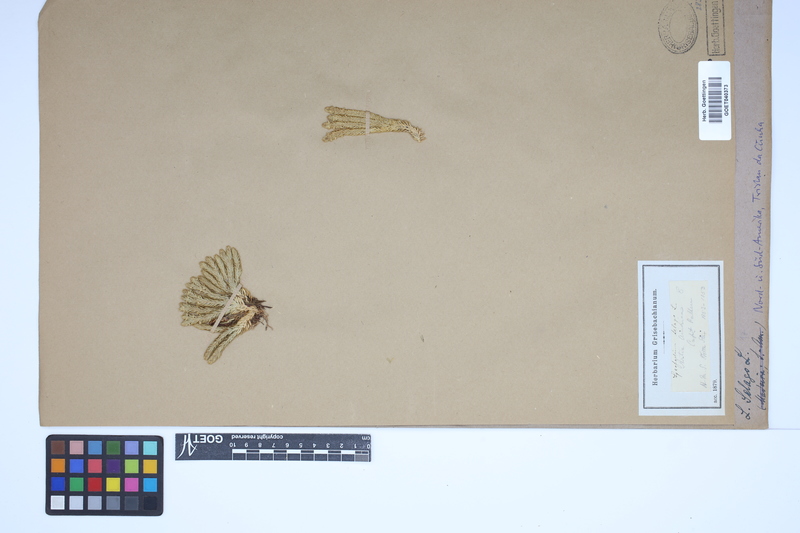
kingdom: Plantae
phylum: Tracheophyta
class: Lycopodiopsida
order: Lycopodiales
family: Lycopodiaceae
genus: Huperzia
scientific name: Huperzia selago
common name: Northern firmoss
